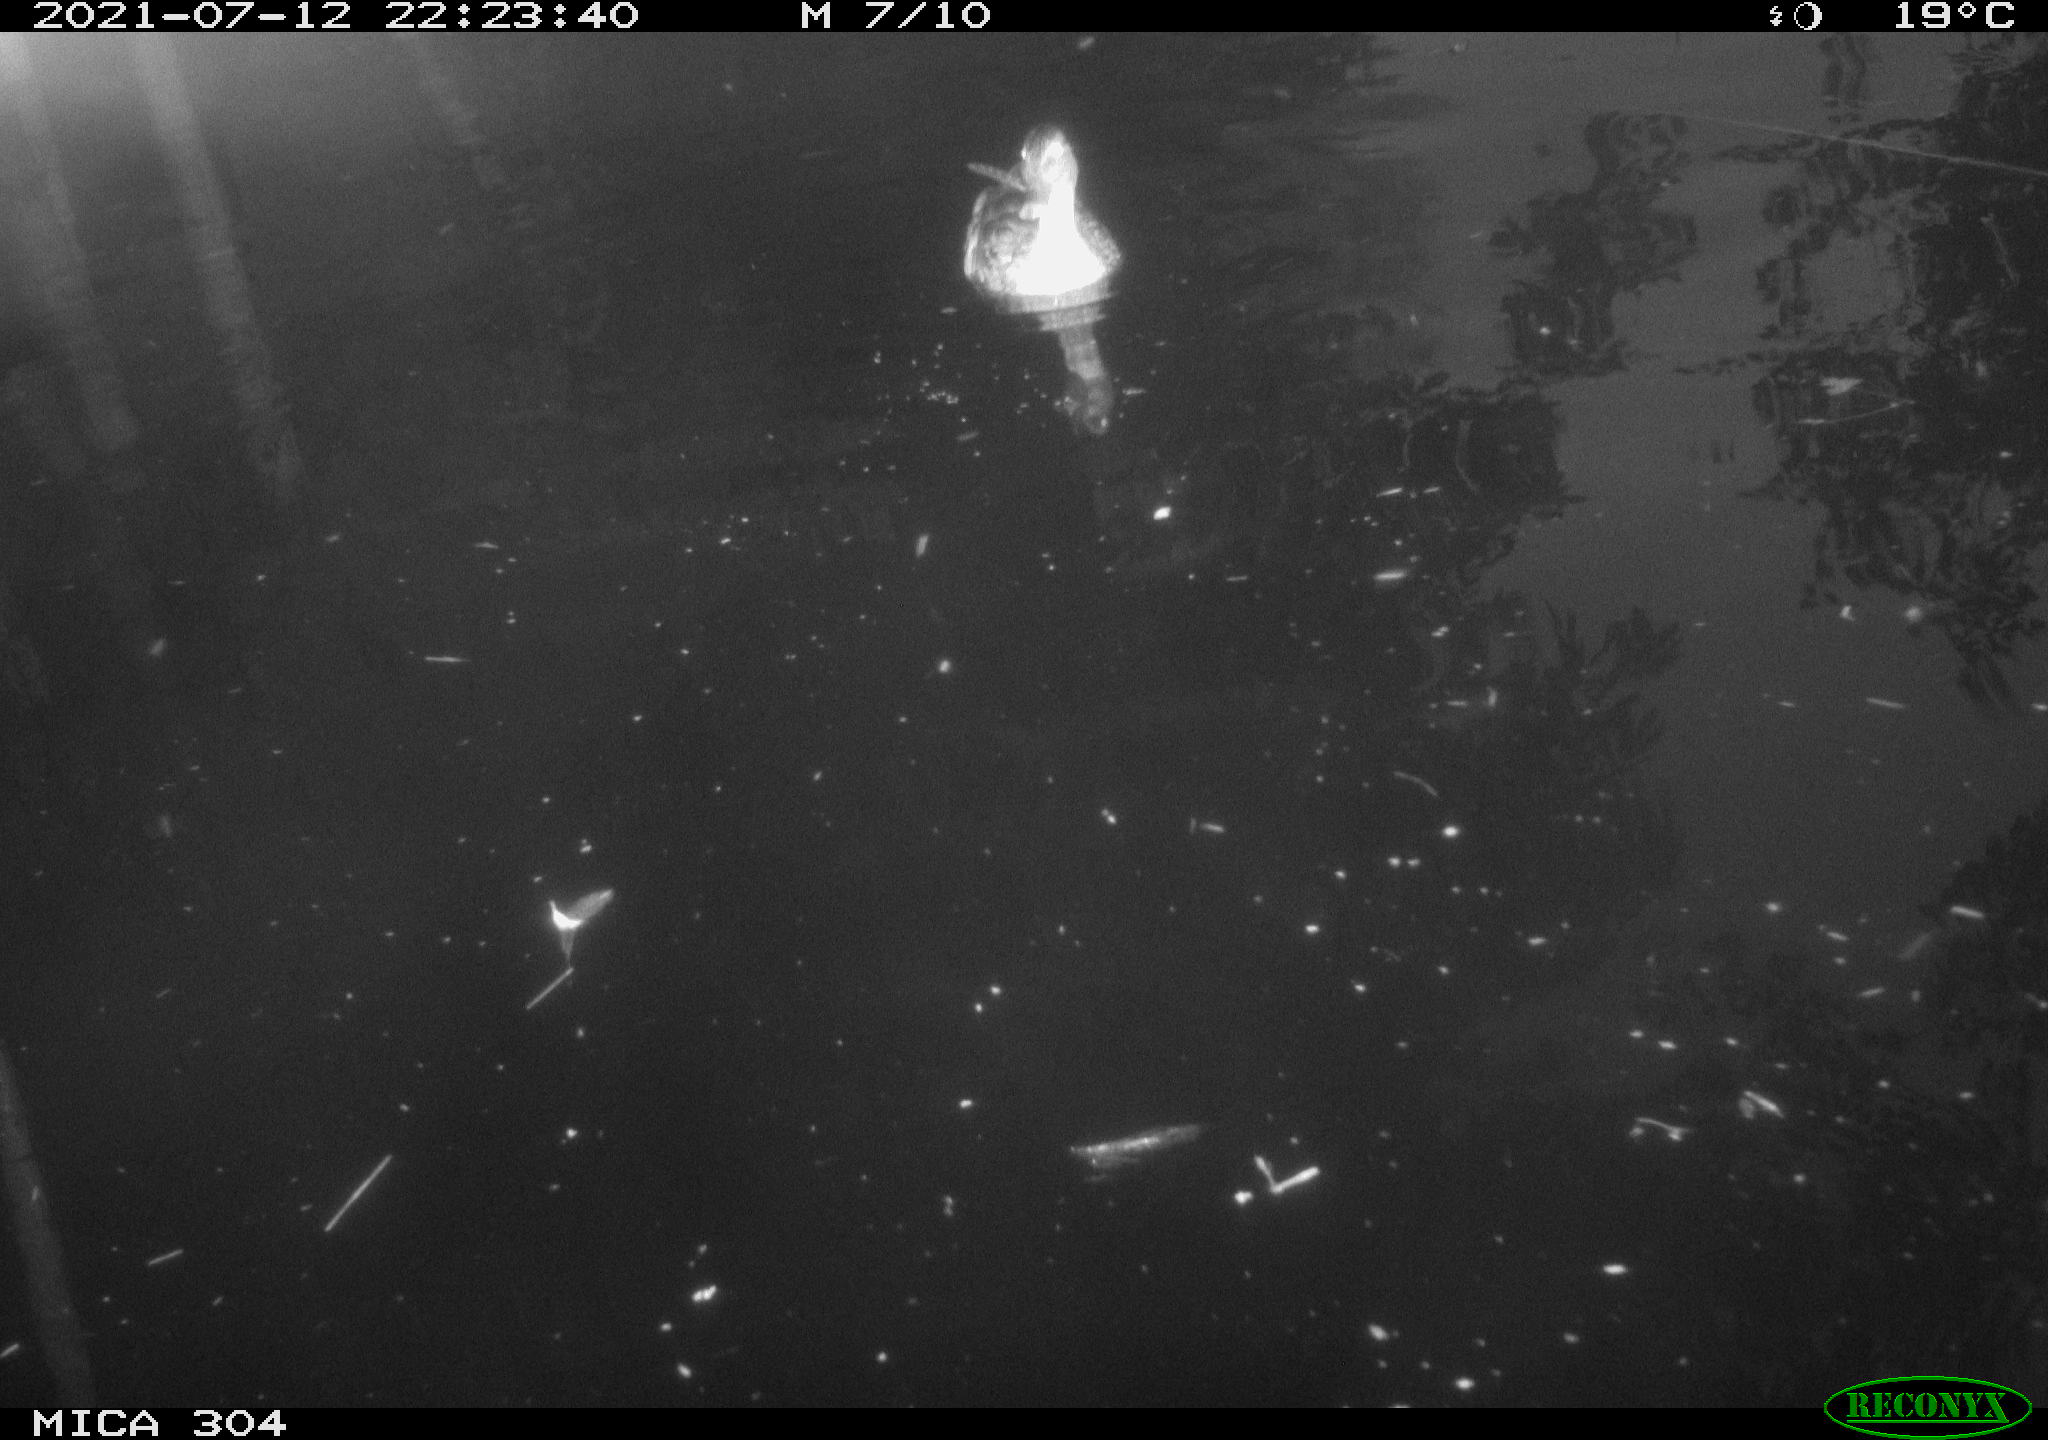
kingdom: Animalia
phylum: Chordata
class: Aves
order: Anseriformes
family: Anatidae
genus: Anas
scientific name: Anas platyrhynchos
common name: Mallard
